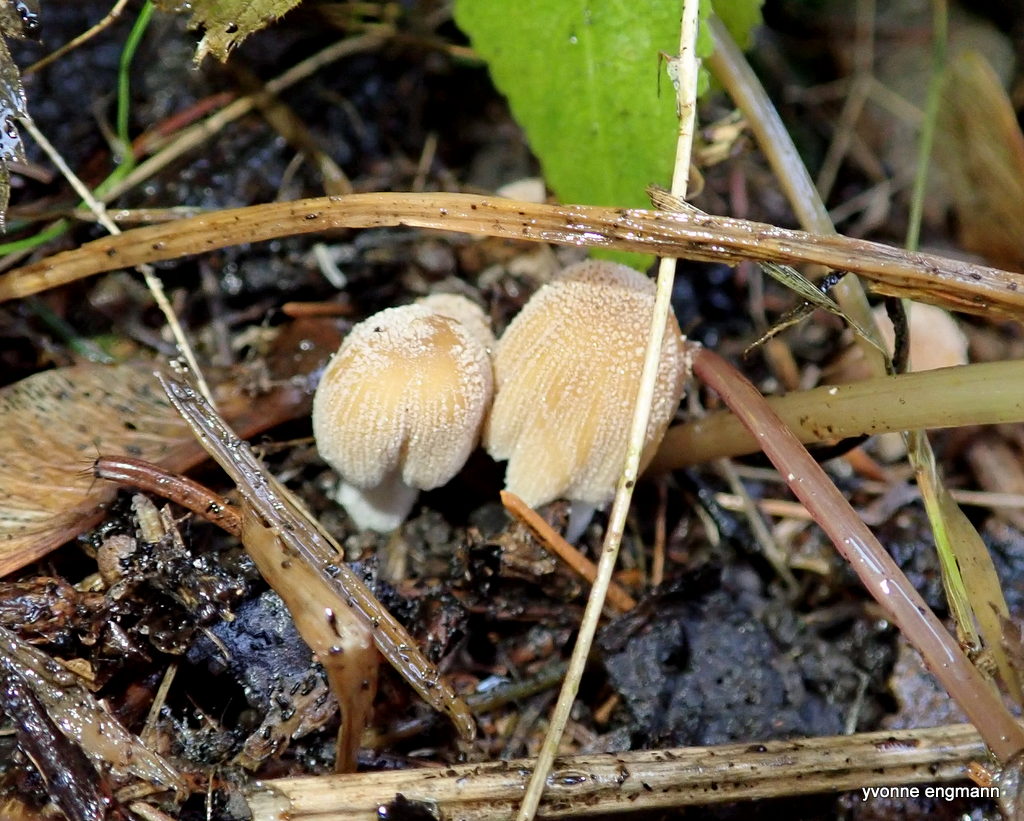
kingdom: Fungi
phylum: Basidiomycota
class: Agaricomycetes
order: Agaricales
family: Psathyrellaceae
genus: Coprinellus
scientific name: Coprinellus micaceus
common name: glimmer-blækhat
